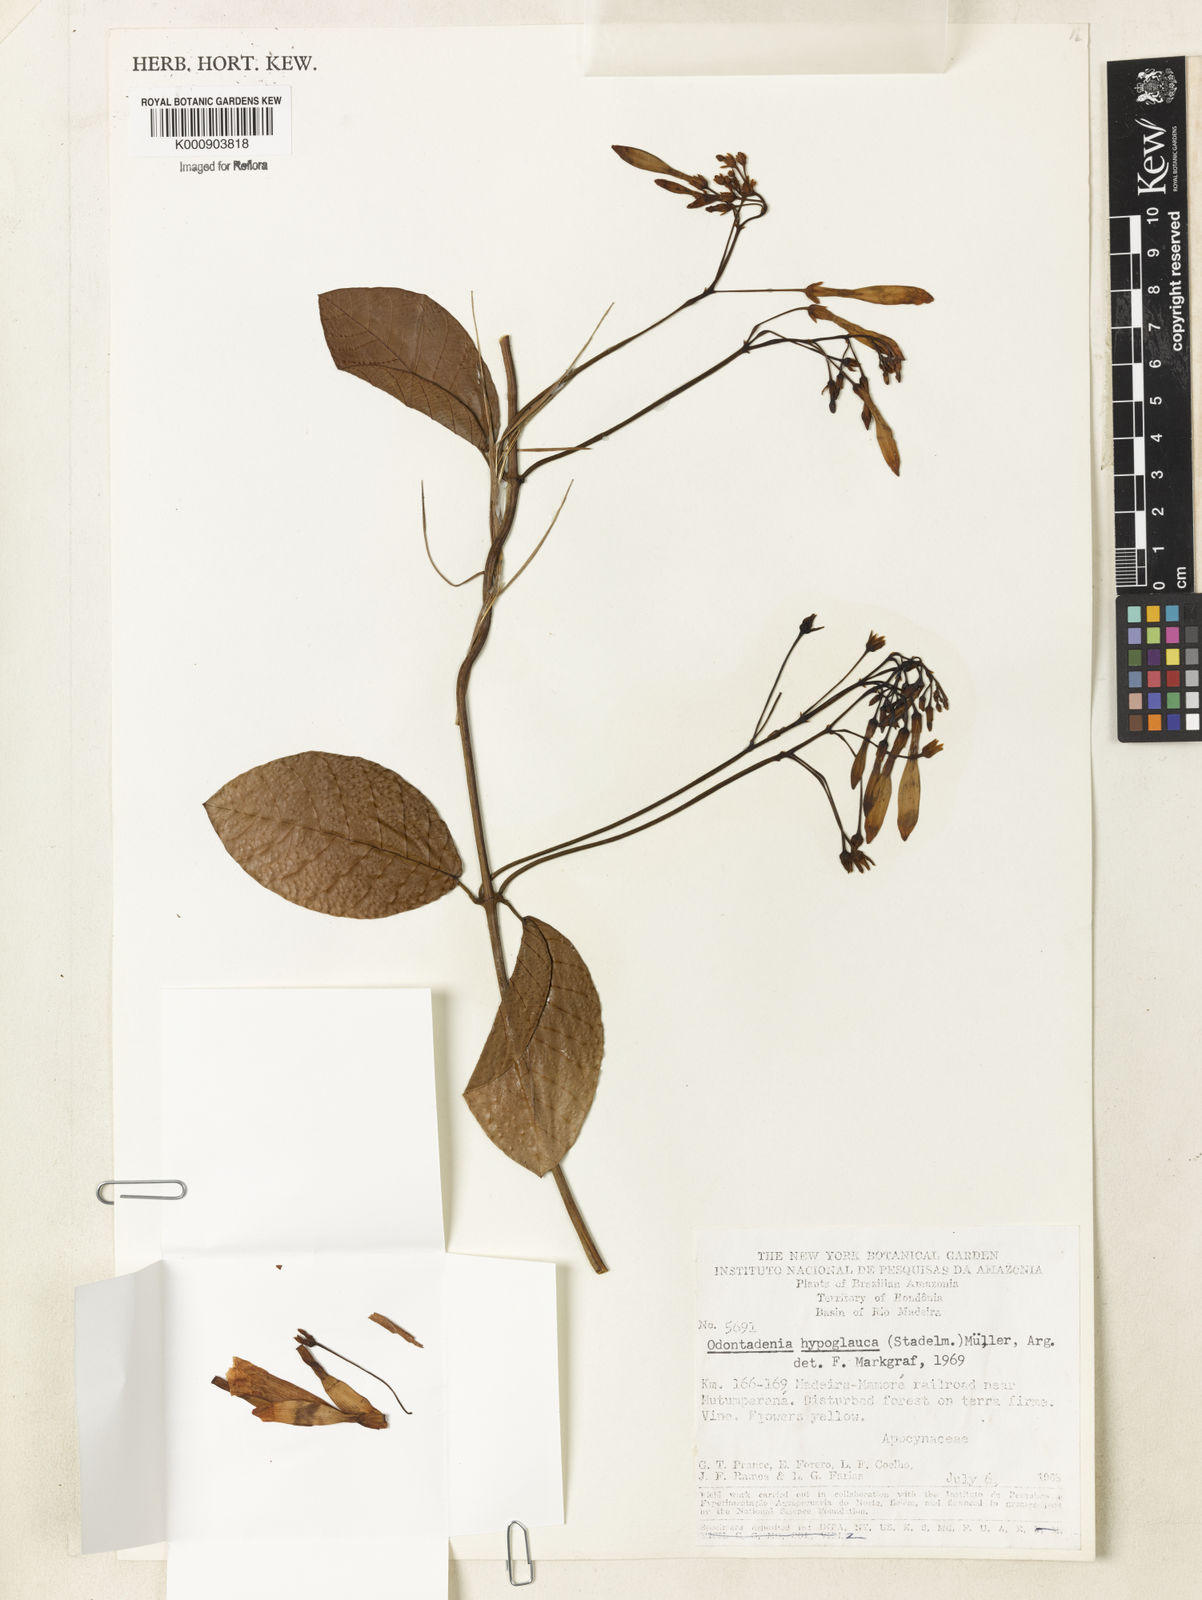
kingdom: Plantae
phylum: Tracheophyta
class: Magnoliopsida
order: Gentianales
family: Apocynaceae
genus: Odontadenia
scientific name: Odontadenia
